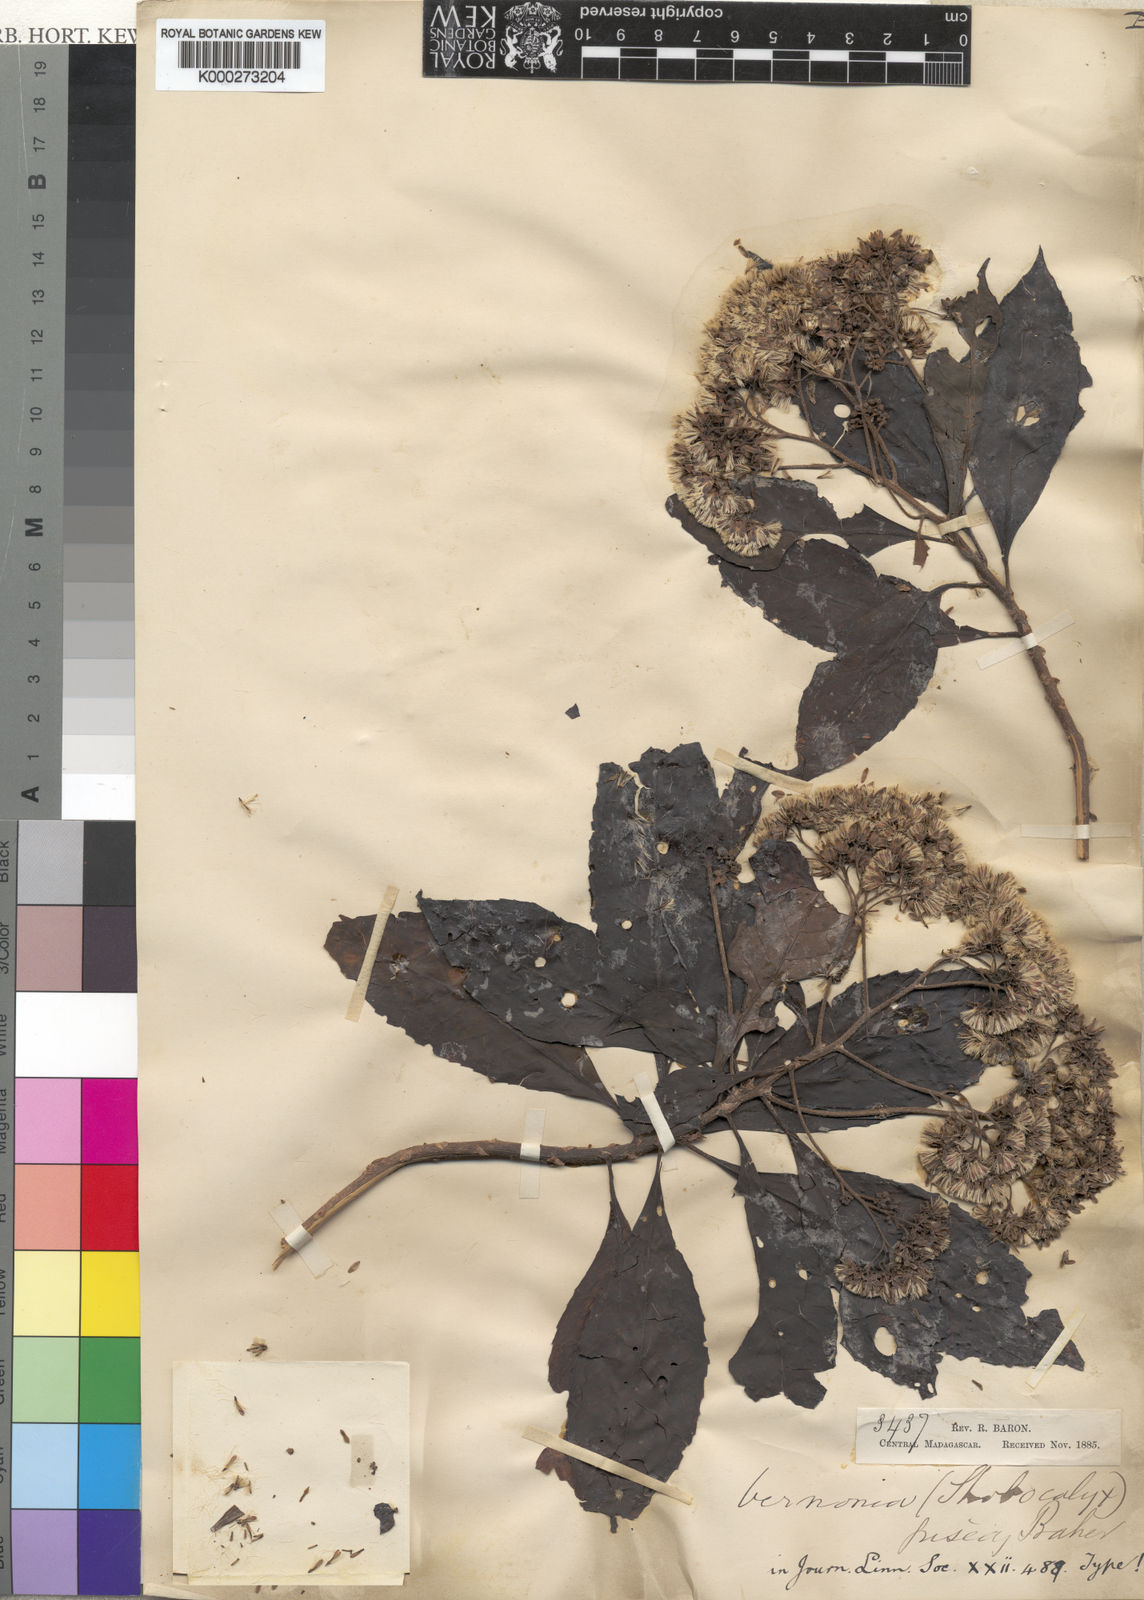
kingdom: Plantae
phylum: Tracheophyta
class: Magnoliopsida
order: Asterales
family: Asteraceae
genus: Gymnanthemum
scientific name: Gymnanthemum exsertum
